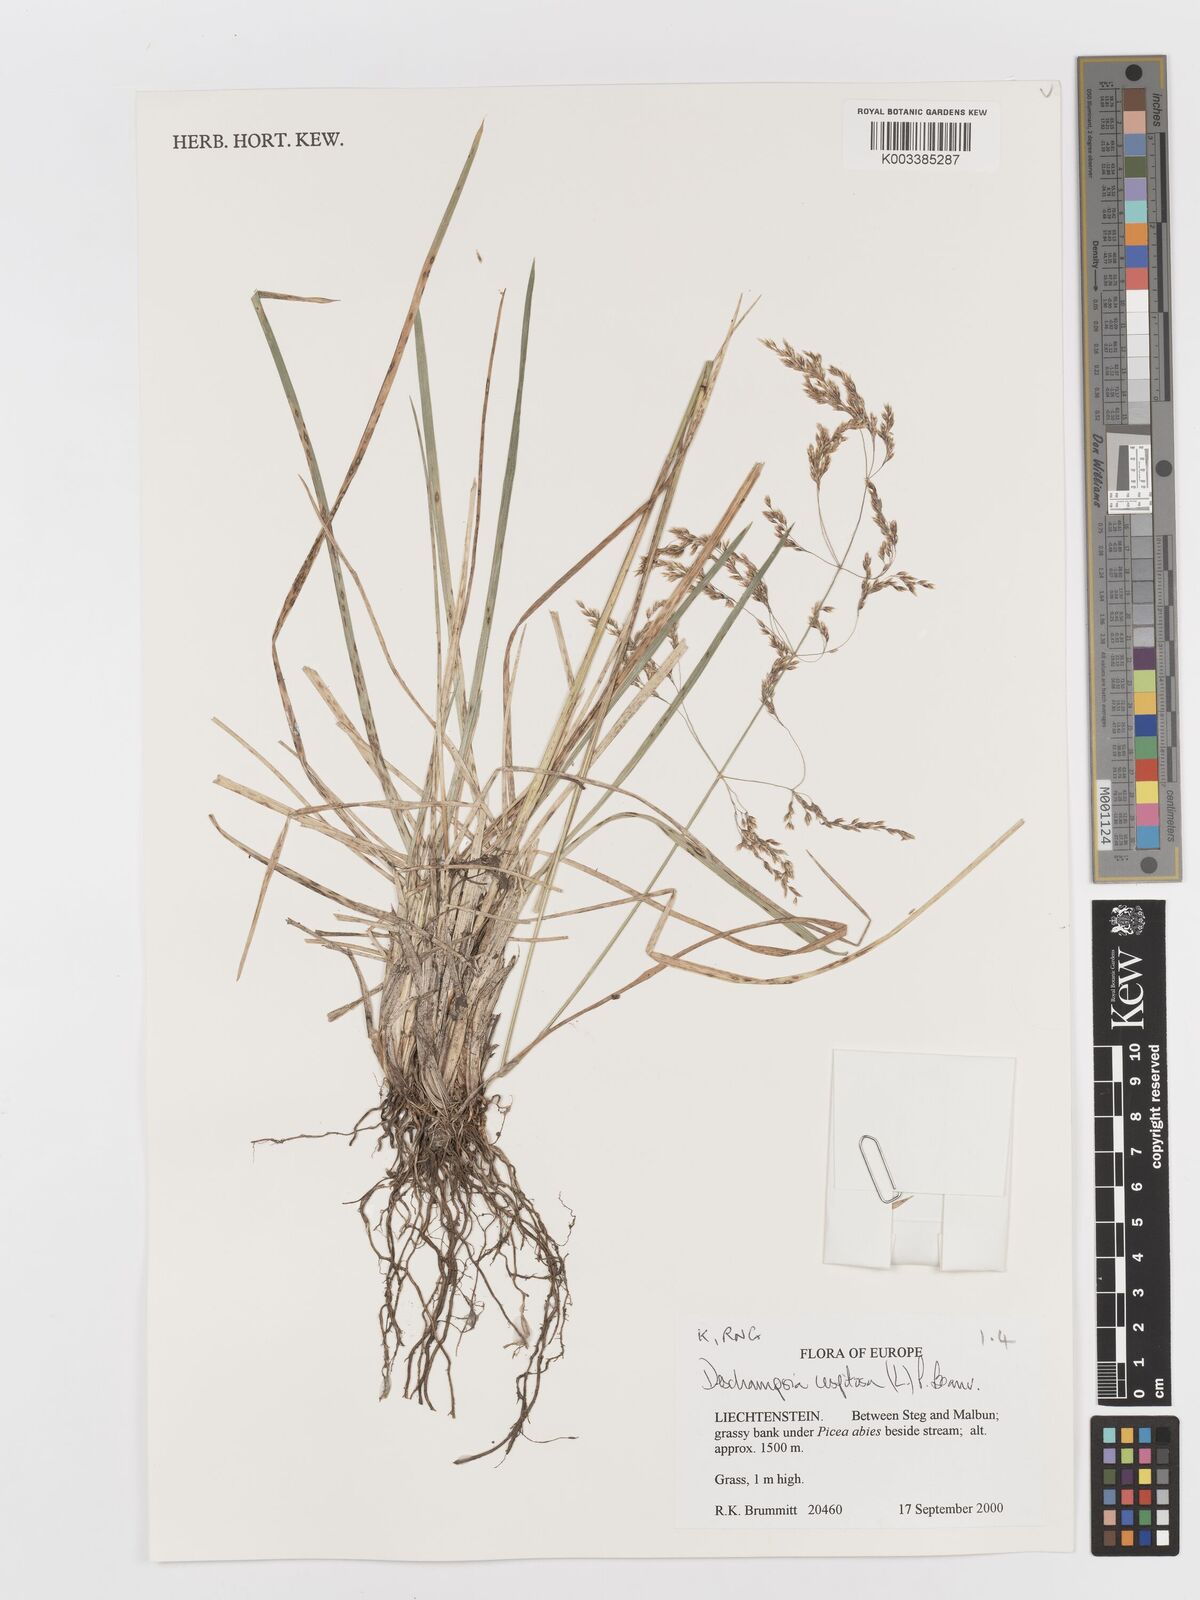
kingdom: Plantae
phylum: Tracheophyta
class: Liliopsida
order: Poales
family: Poaceae
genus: Deschampsia
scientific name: Deschampsia cespitosa
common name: Tufted hair-grass
